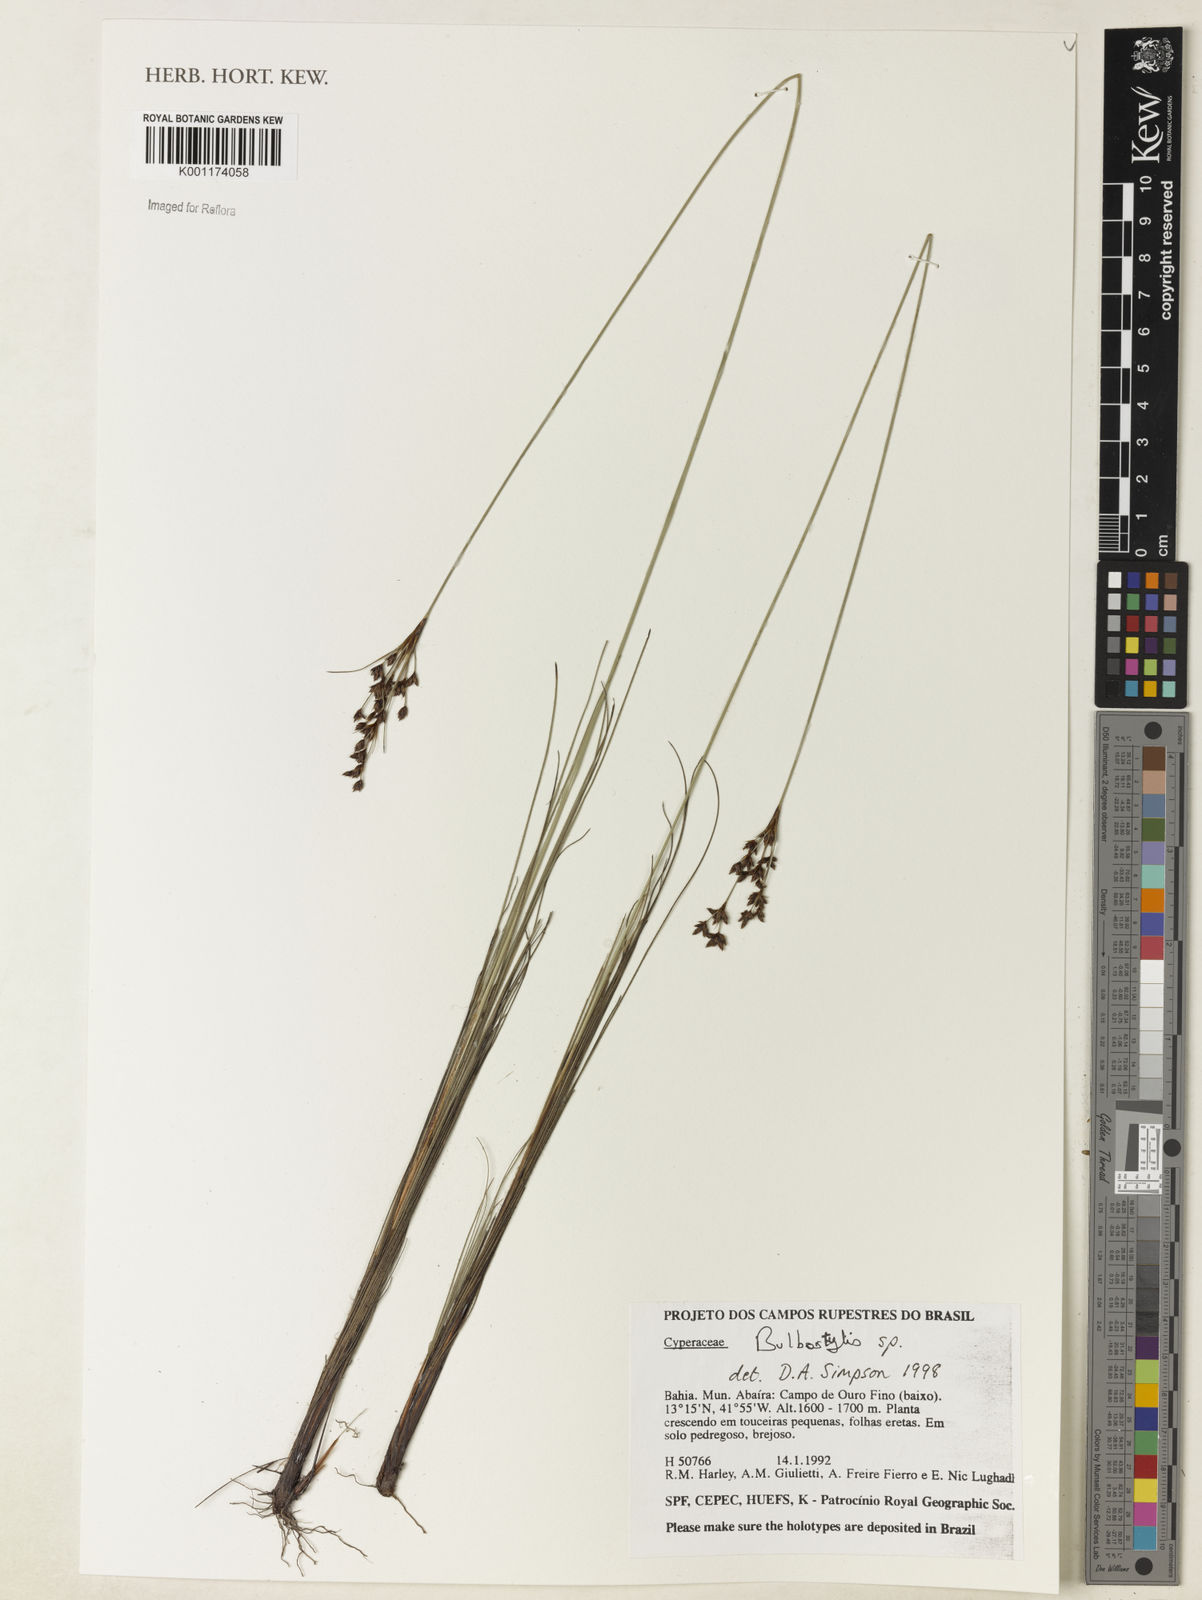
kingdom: Plantae
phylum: Tracheophyta
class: Liliopsida
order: Poales
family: Cyperaceae
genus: Bulbostylis
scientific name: Bulbostylis
